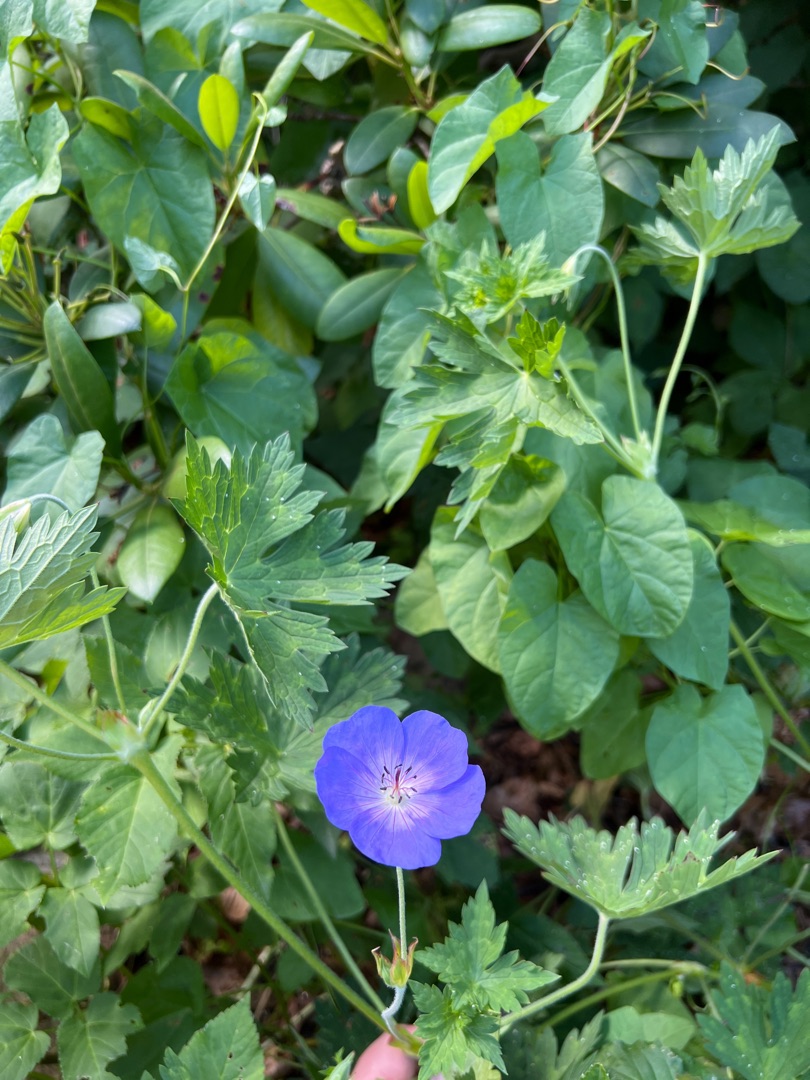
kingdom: Plantae
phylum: Tracheophyta
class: Magnoliopsida
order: Geraniales
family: Geraniaceae
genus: Geranium
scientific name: Geranium pratense
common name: Eng-storkenæb
